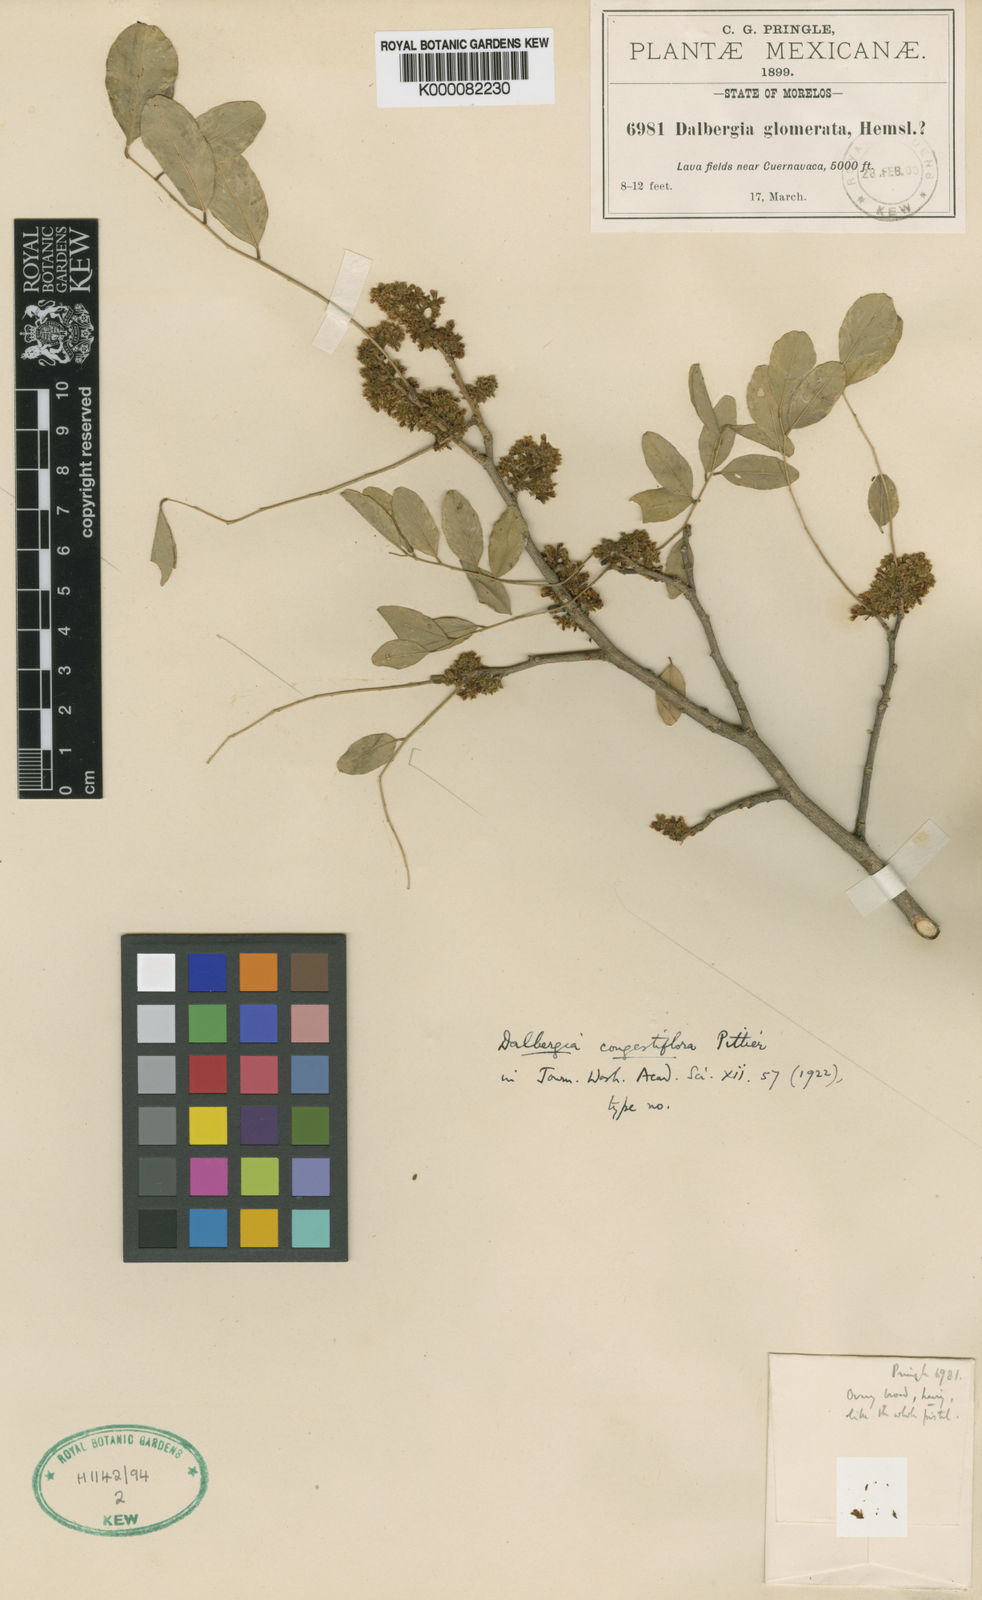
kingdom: Plantae
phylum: Tracheophyta
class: Magnoliopsida
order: Fabales
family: Fabaceae
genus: Dalbergia
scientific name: Dalbergia congestiflora
